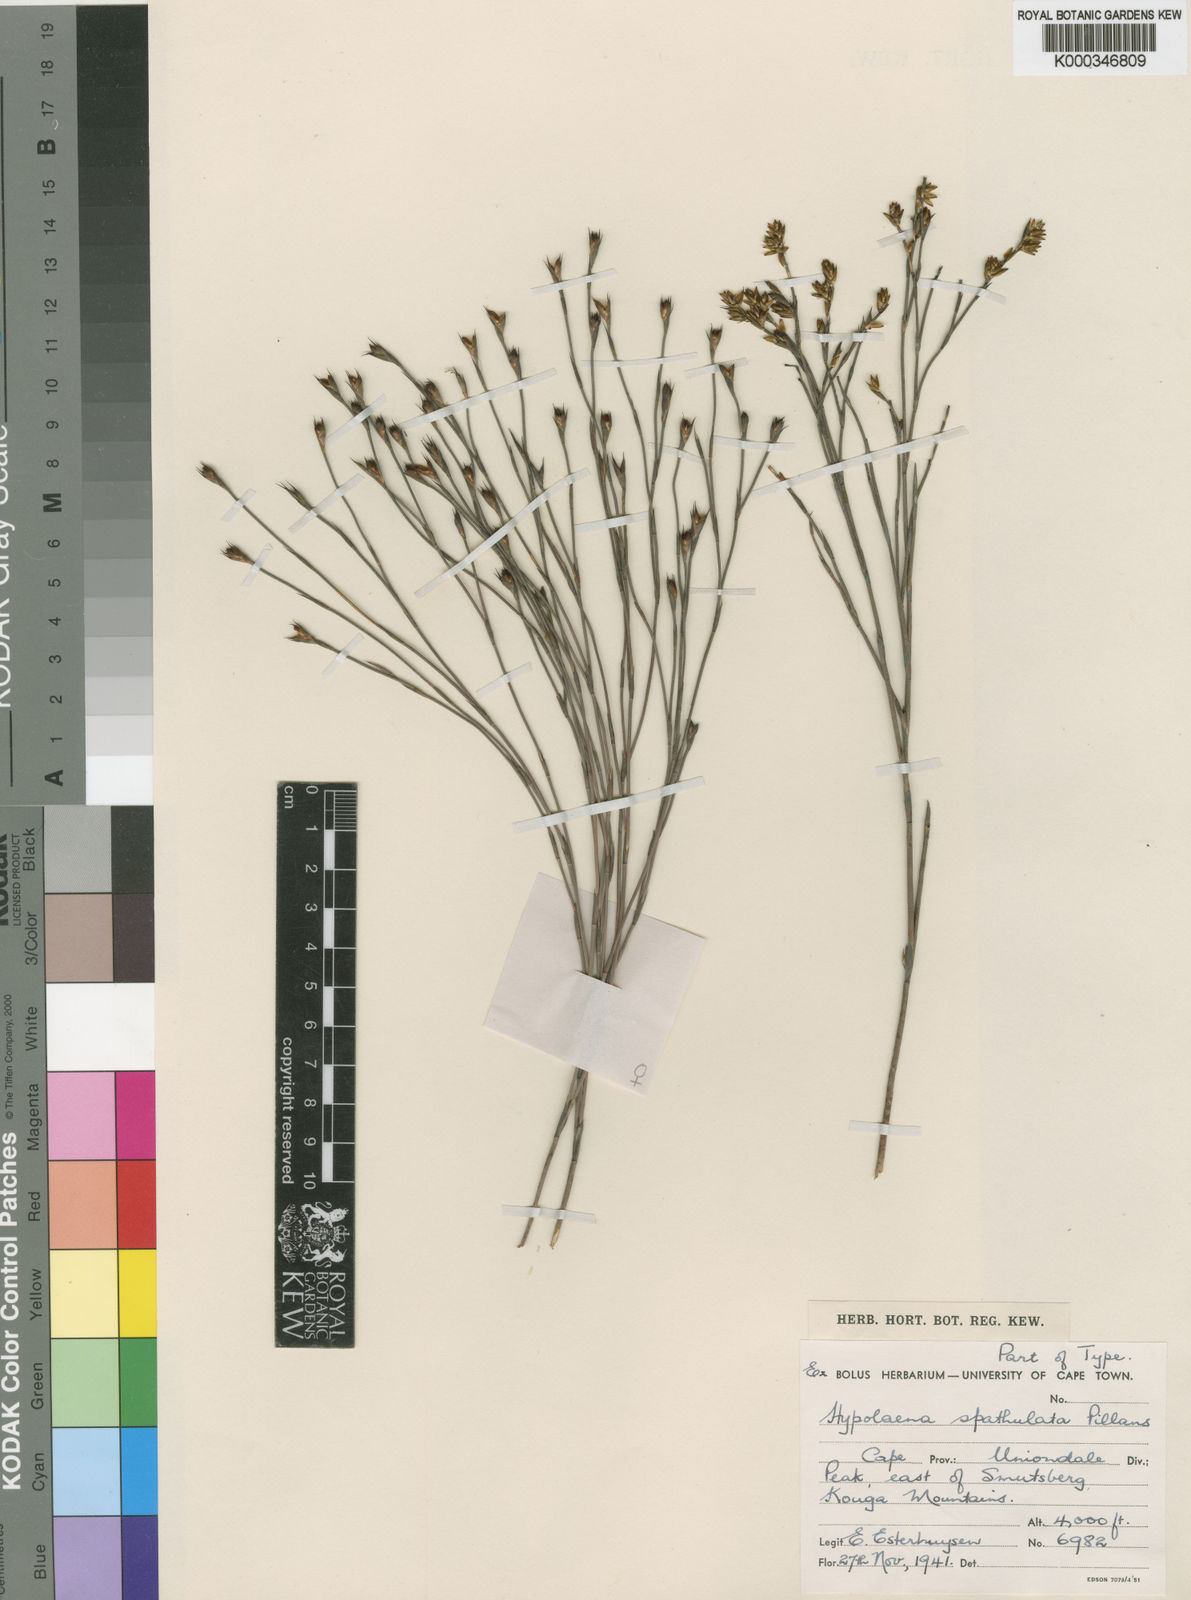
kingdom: Plantae
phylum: Tracheophyta
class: Liliopsida
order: Poales
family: Restionaceae
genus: Mastersiella
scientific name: Mastersiella spathulata
